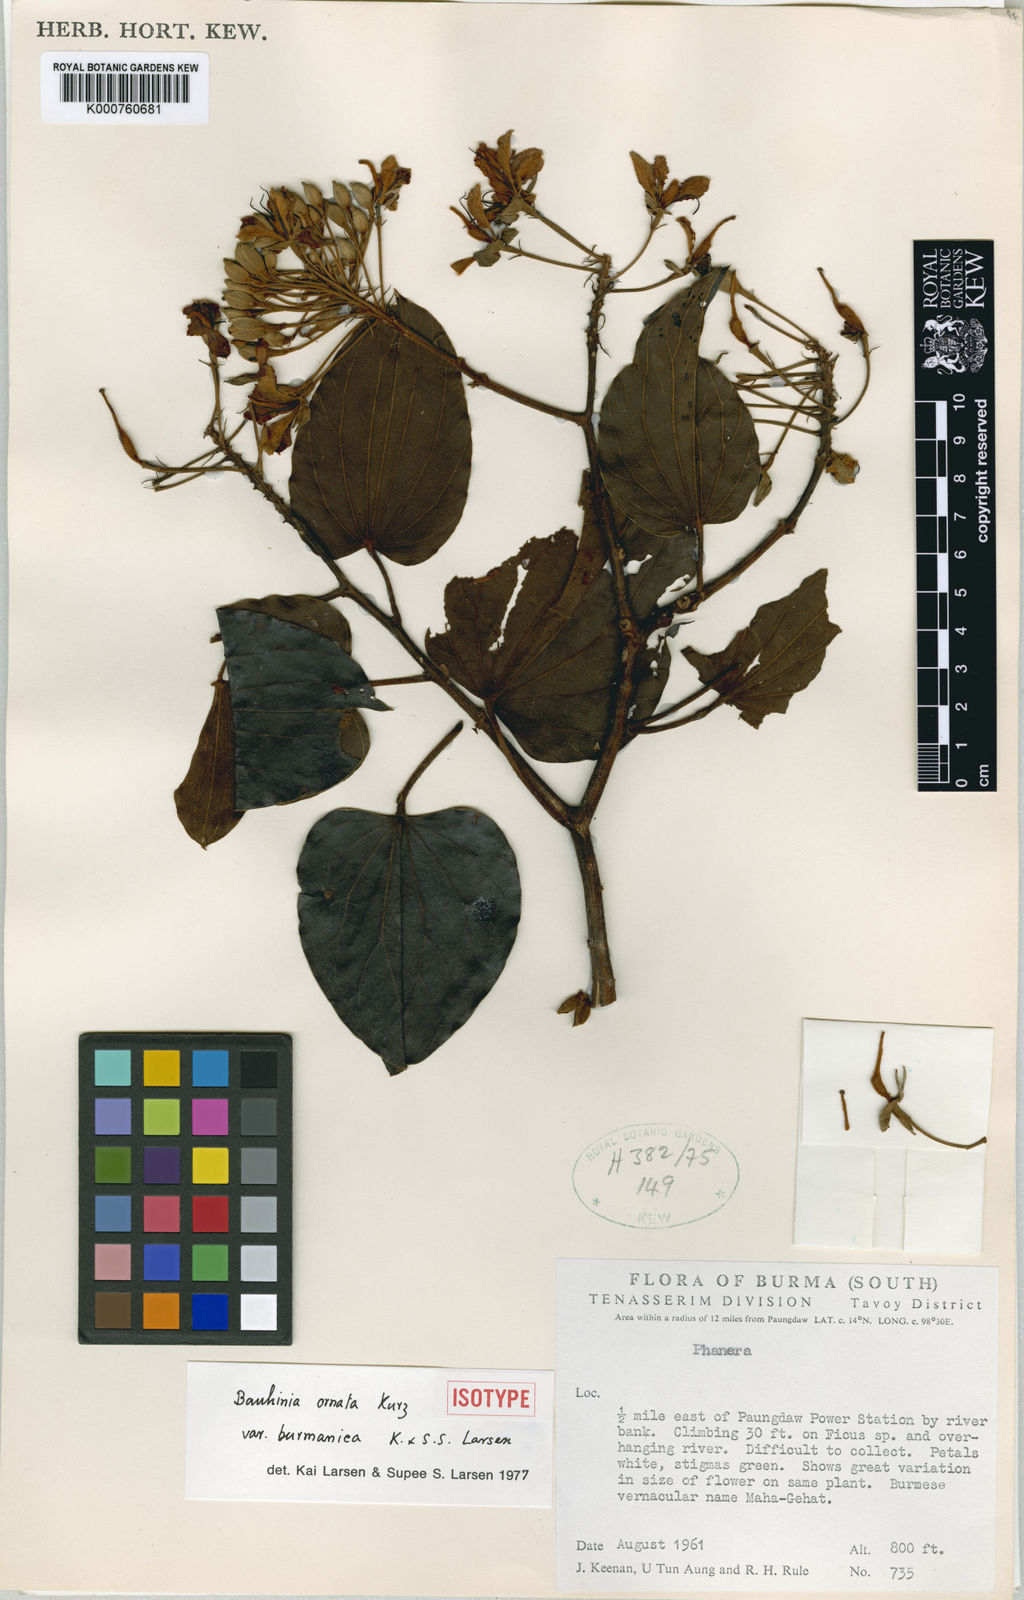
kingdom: Plantae
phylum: Tracheophyta
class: Magnoliopsida
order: Fabales
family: Fabaceae
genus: Phanera
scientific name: Phanera ornata
